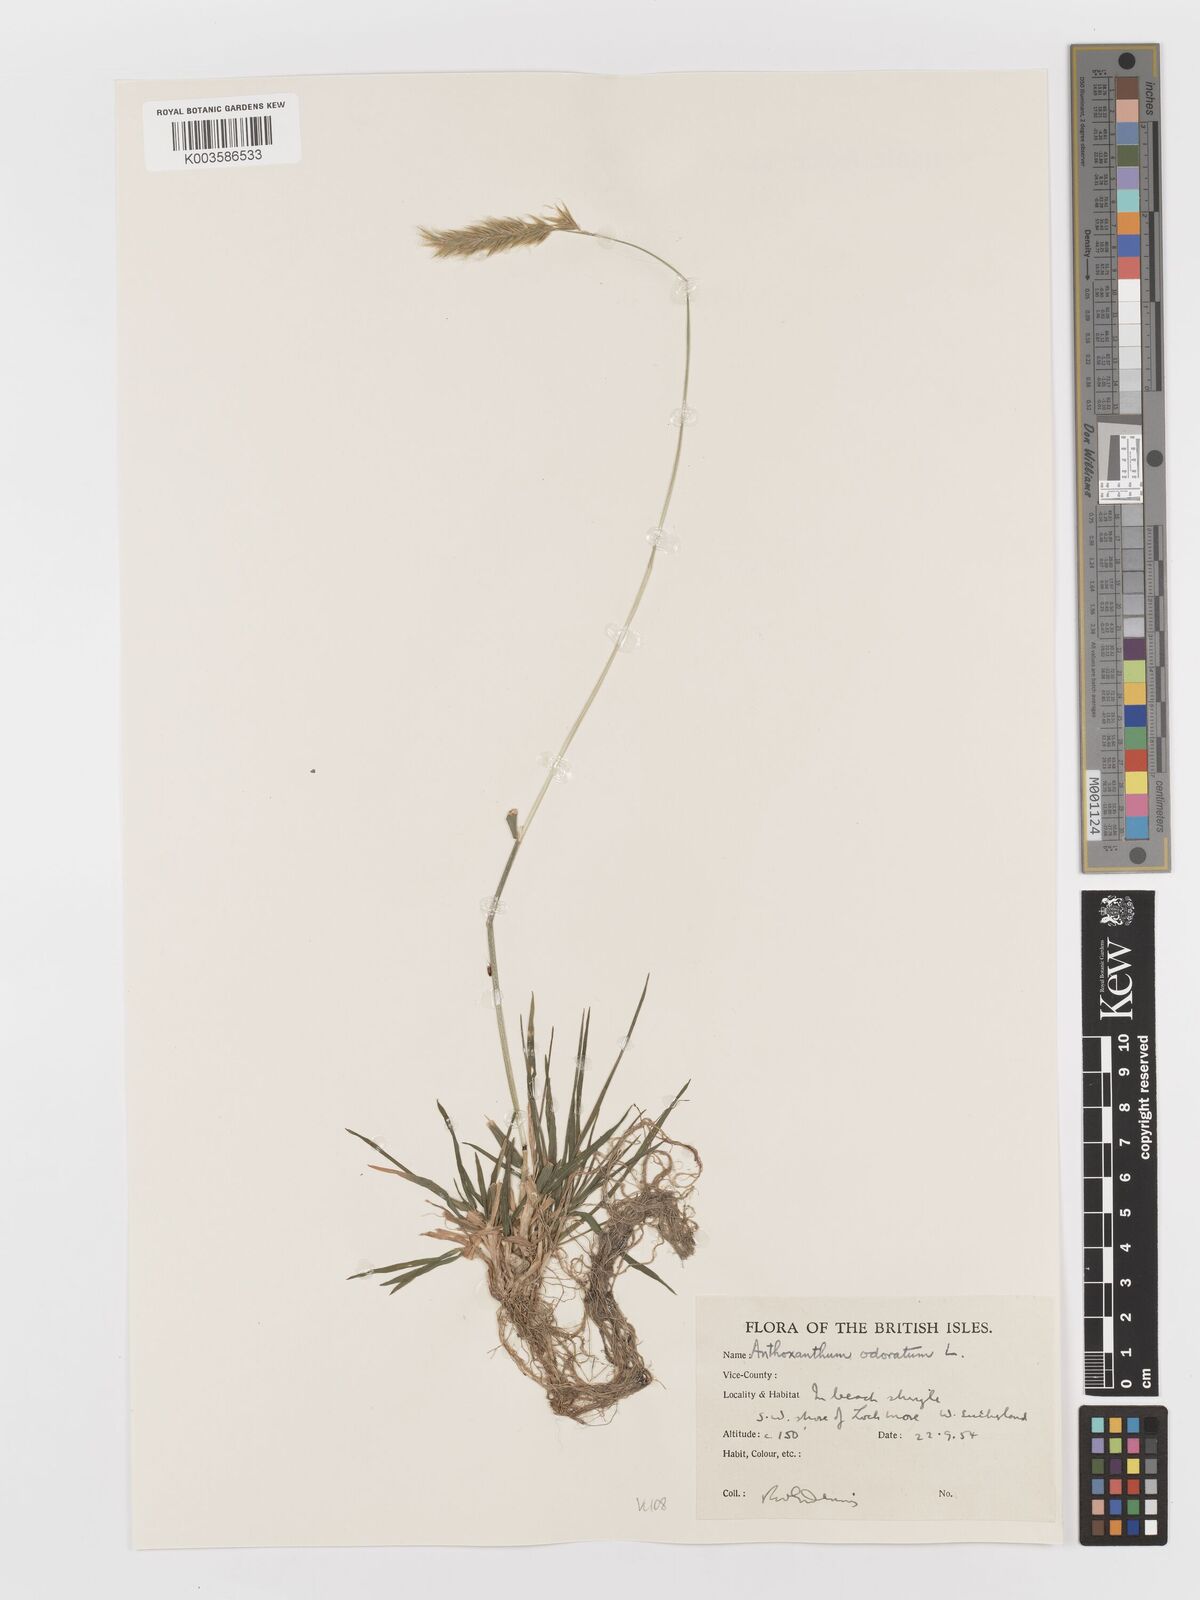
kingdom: Plantae
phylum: Tracheophyta
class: Liliopsida
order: Poales
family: Poaceae
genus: Anthoxanthum
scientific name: Anthoxanthum odoratum
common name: Sweet vernalgrass
